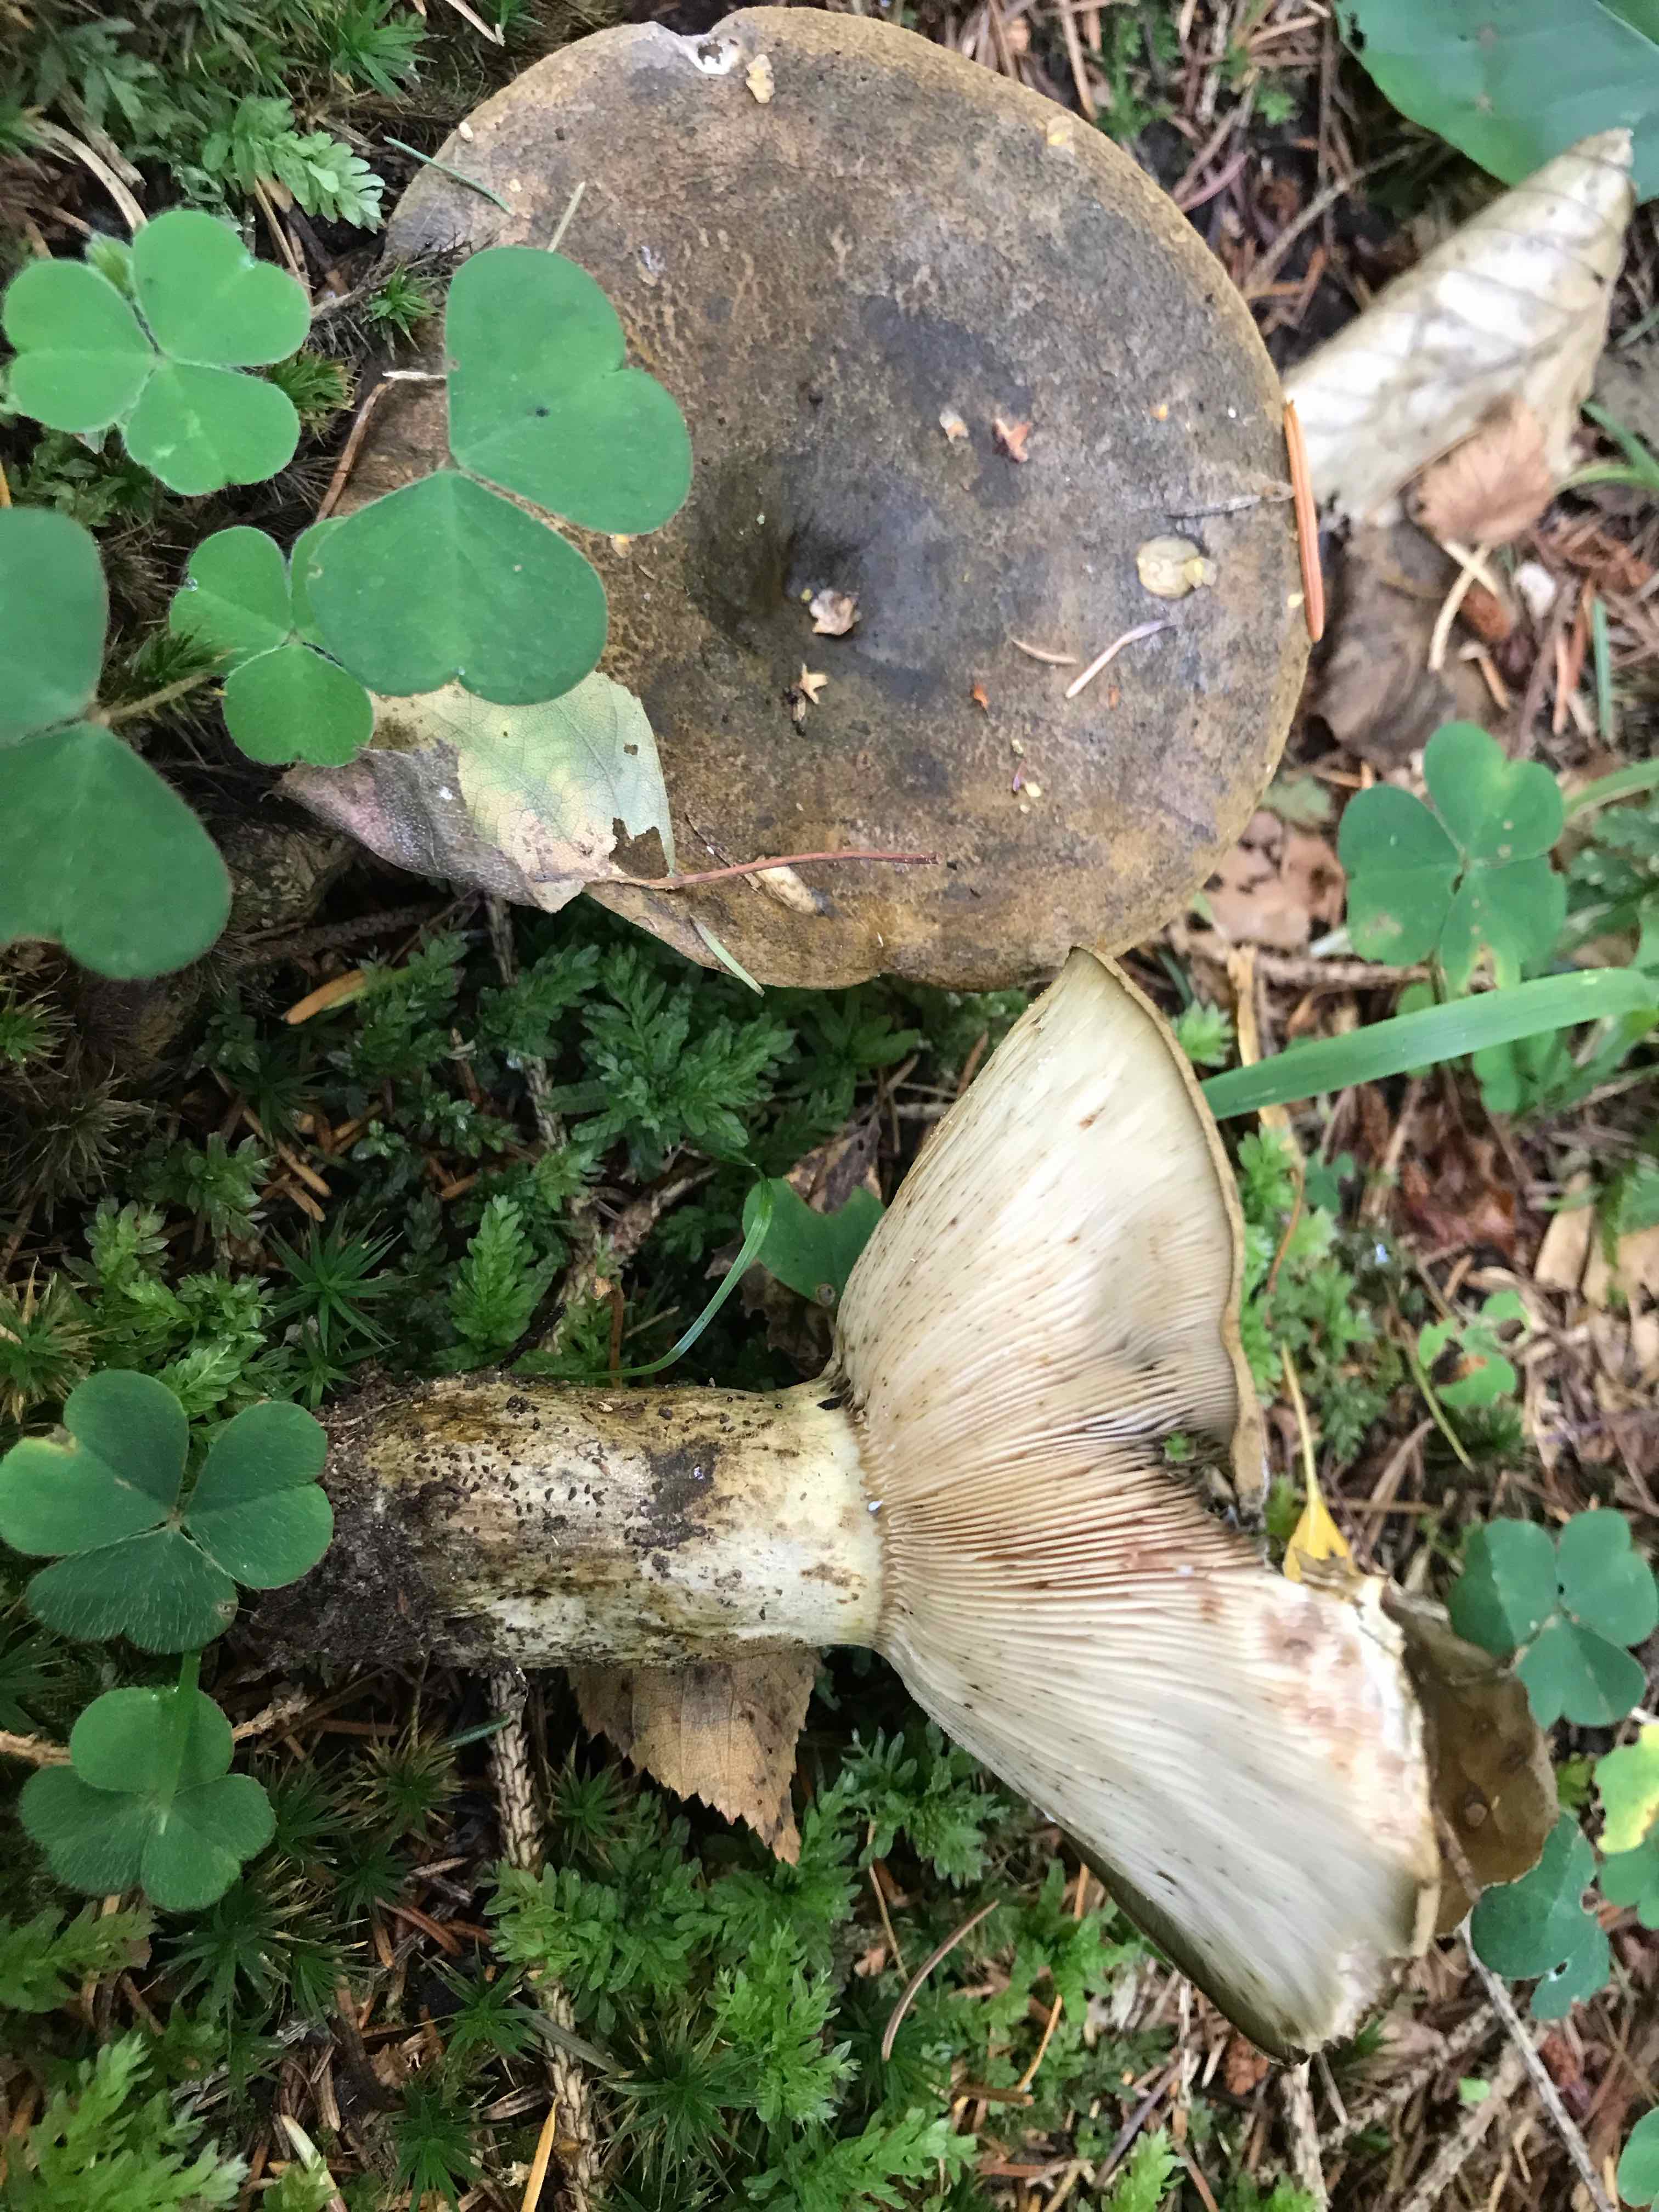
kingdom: Fungi
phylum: Basidiomycota
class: Agaricomycetes
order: Russulales
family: Russulaceae
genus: Lactarius
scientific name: Lactarius necator
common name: manddraber-mælkehat
